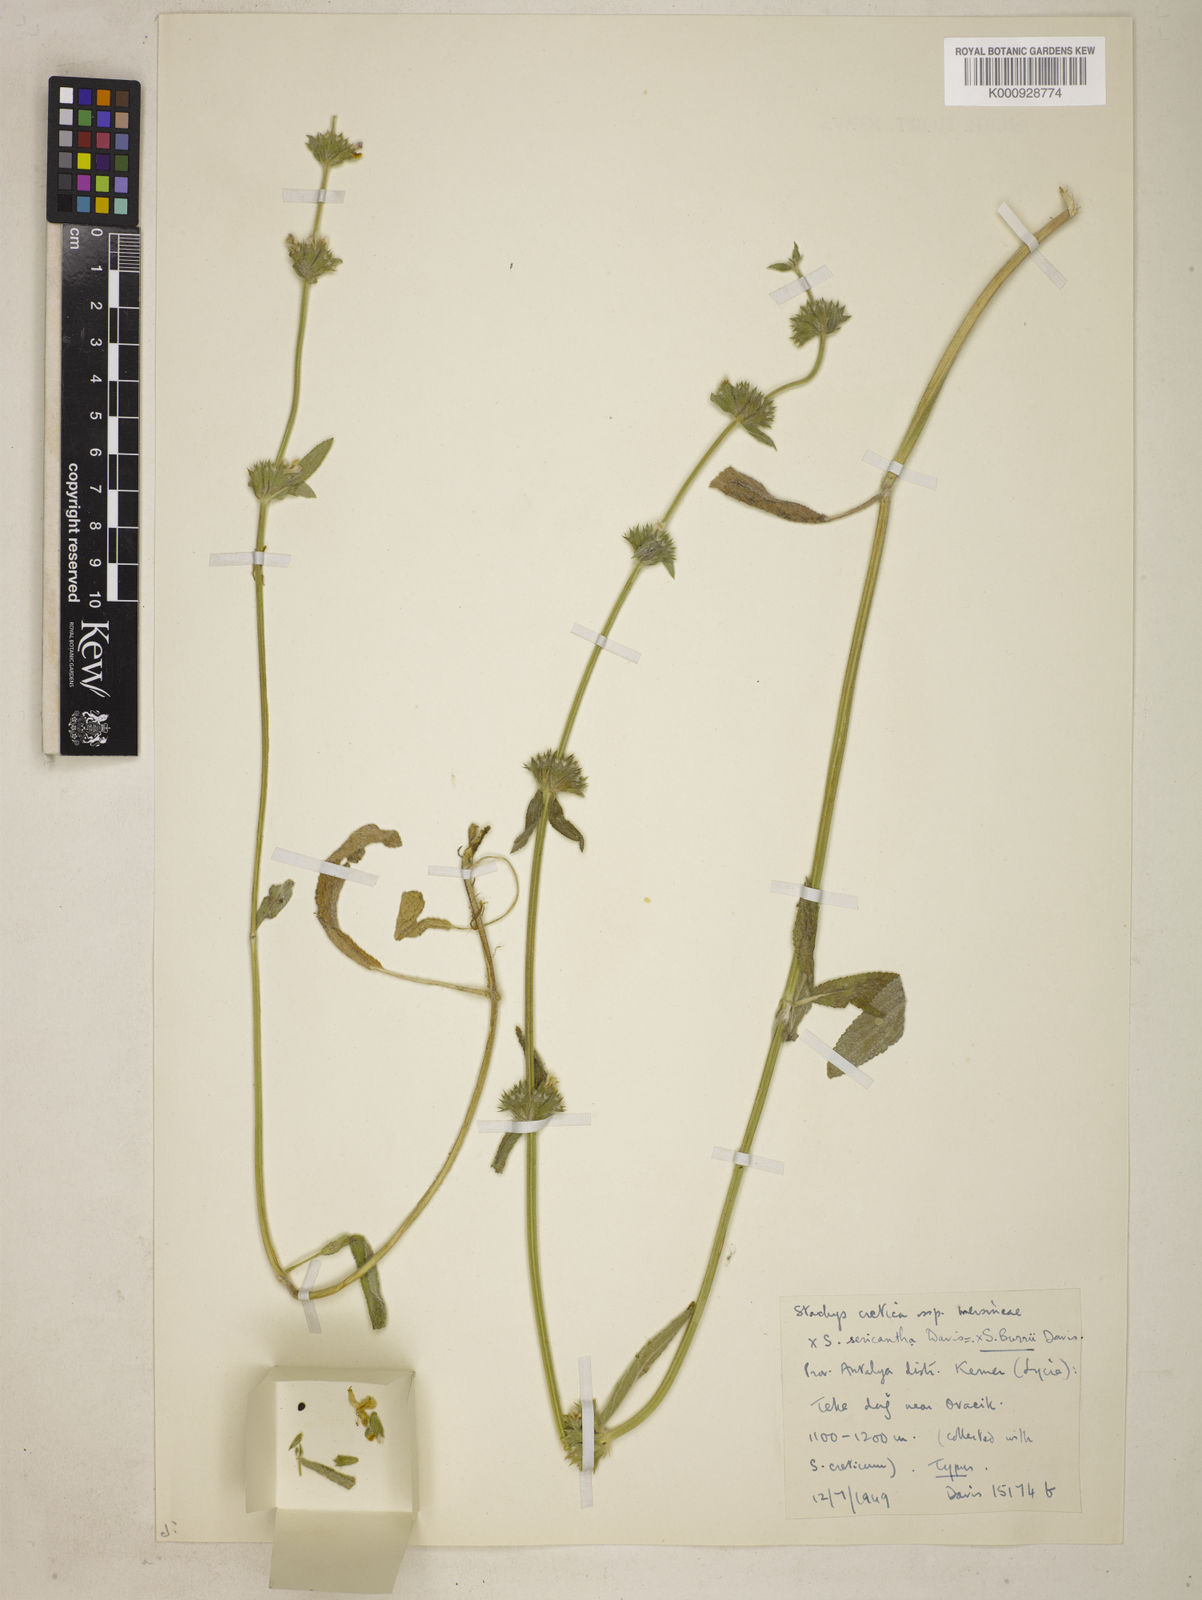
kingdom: Plantae
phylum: Tracheophyta
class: Magnoliopsida
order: Lamiales
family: Lamiaceae
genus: Stachys
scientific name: Stachys burrii
